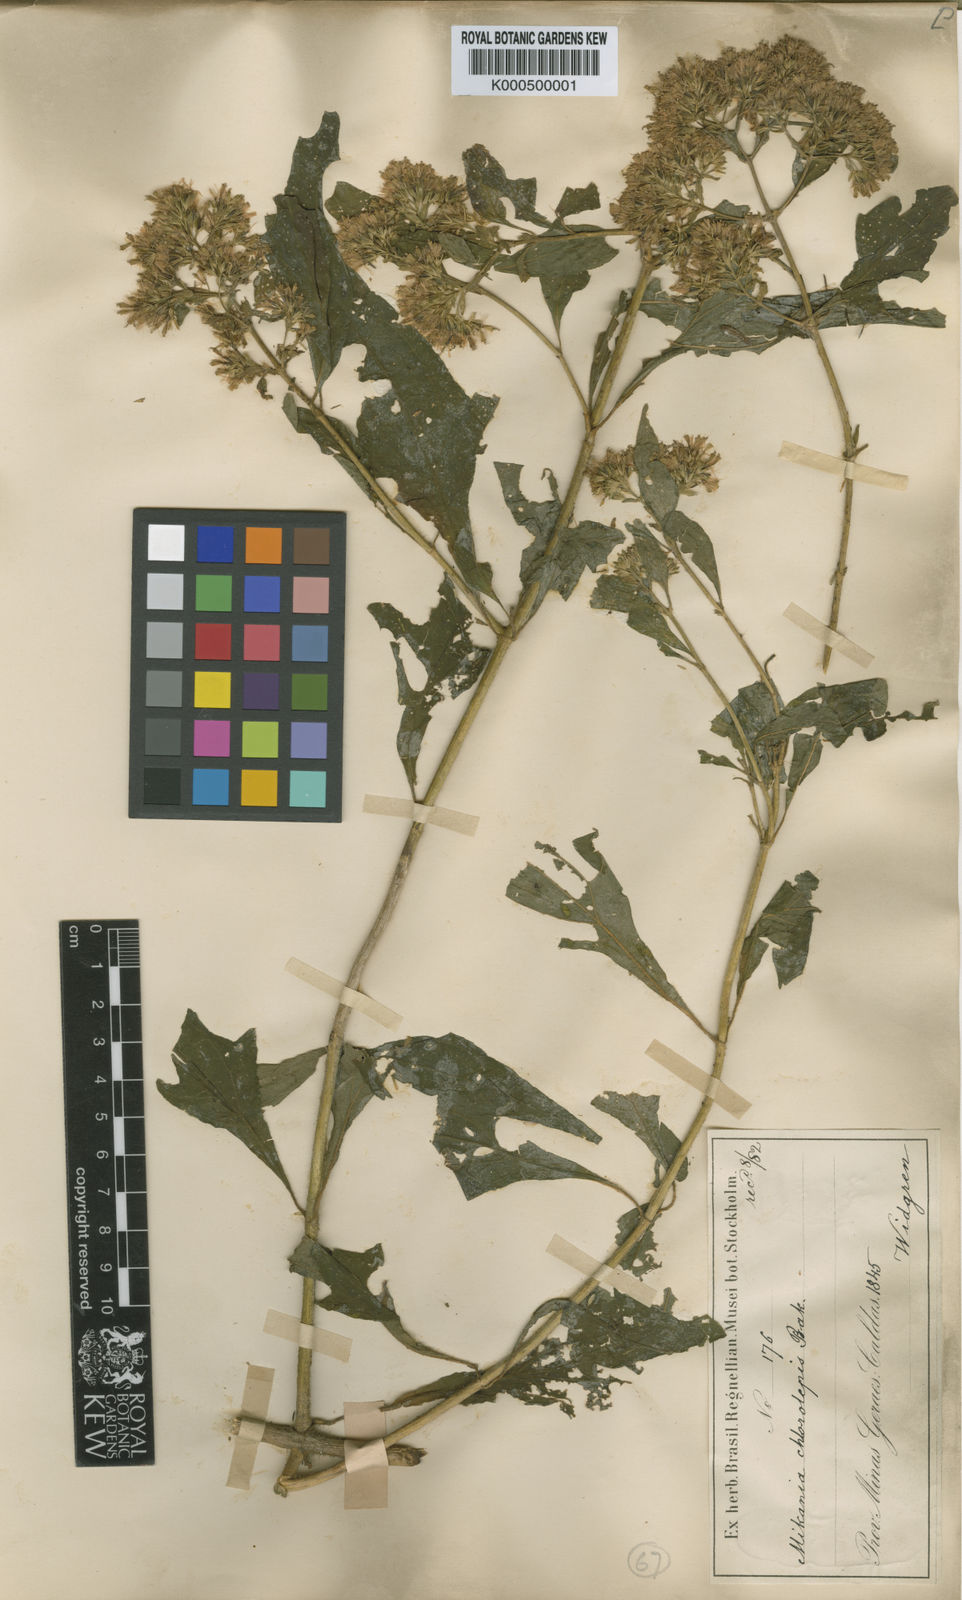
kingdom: Plantae
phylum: Tracheophyta
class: Magnoliopsida
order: Asterales
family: Asteraceae
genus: Mikania
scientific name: Mikania chlorolepis
